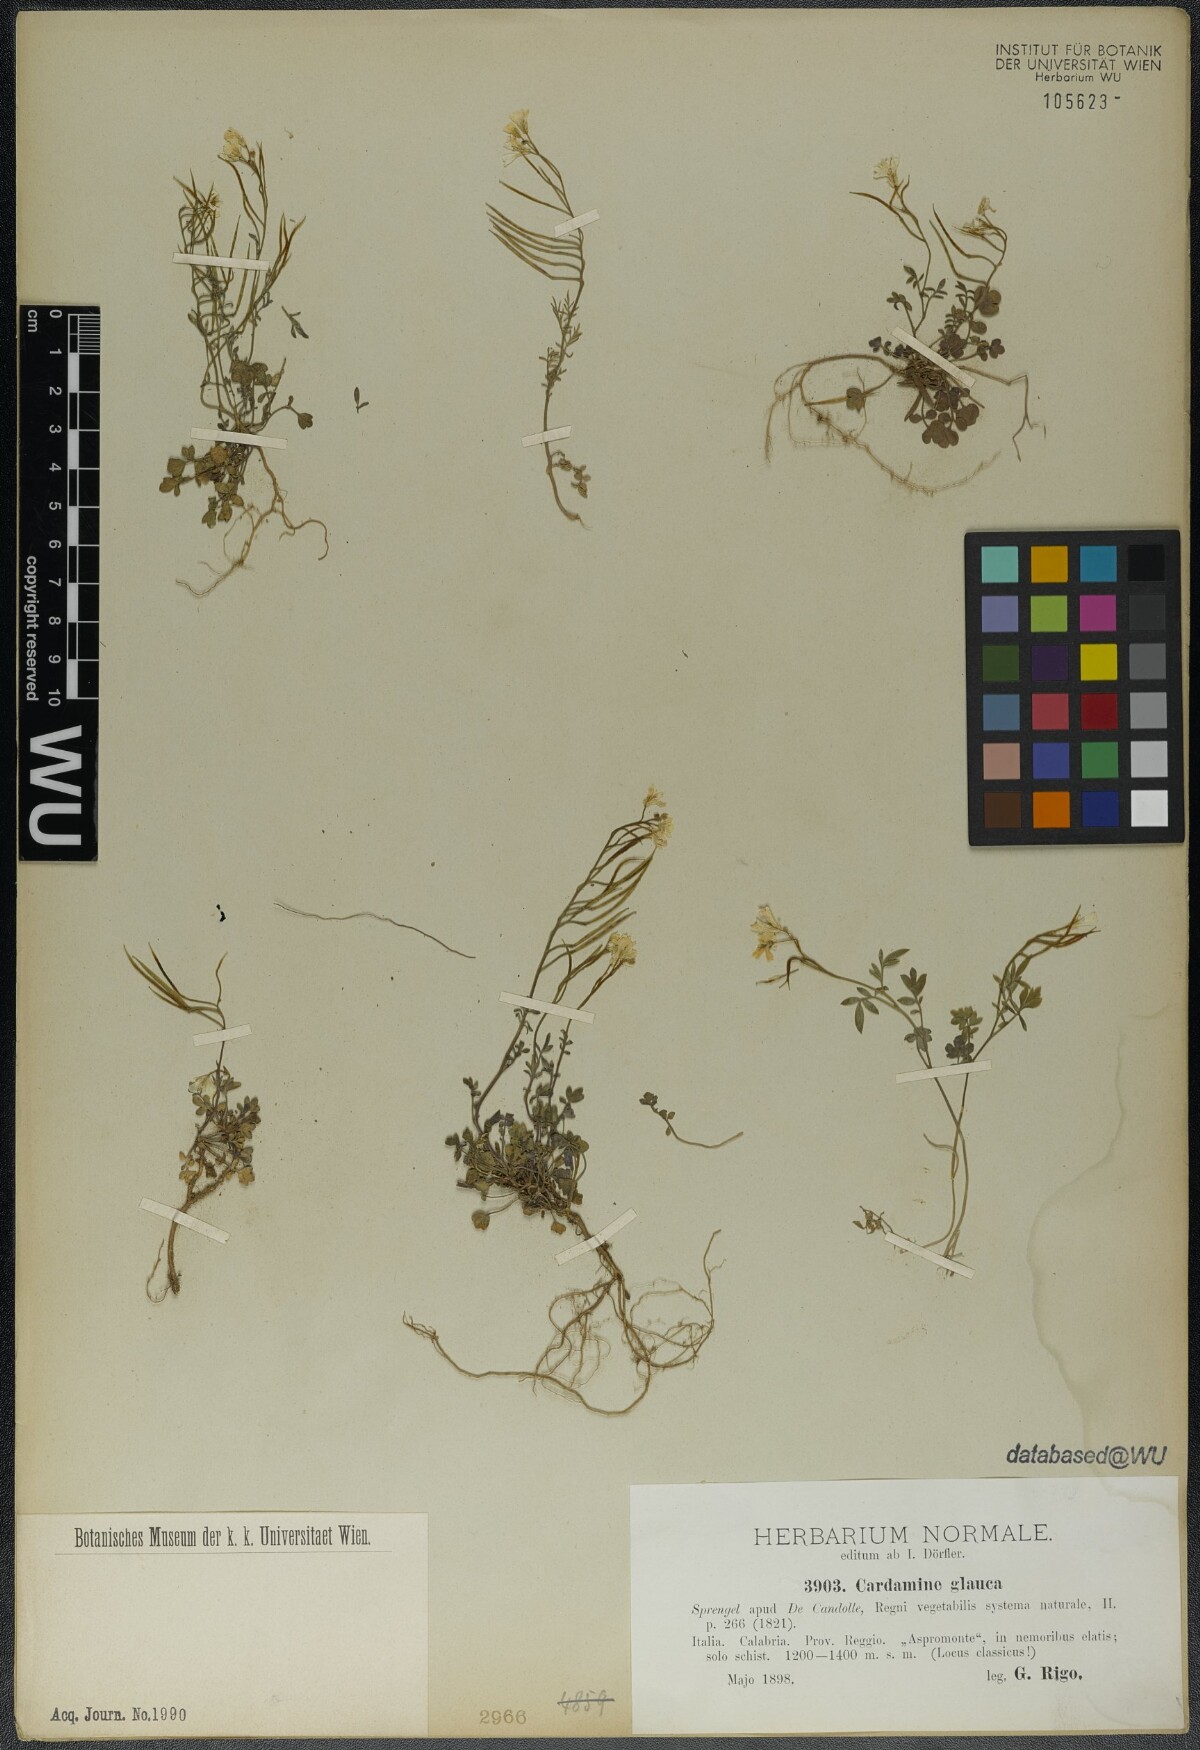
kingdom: Plantae
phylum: Tracheophyta
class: Magnoliopsida
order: Brassicales
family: Brassicaceae
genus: Cardamine
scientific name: Cardamine glauca
